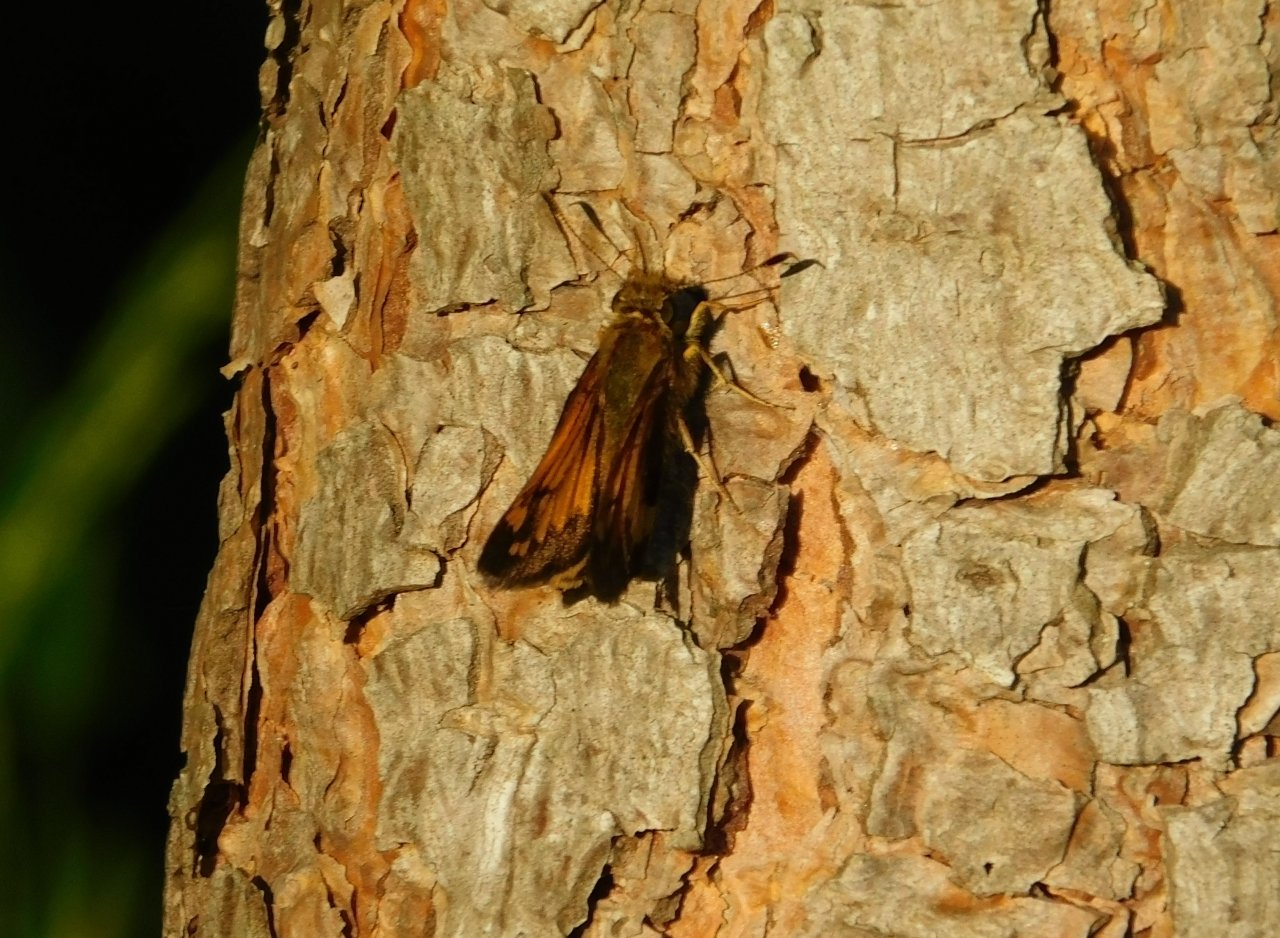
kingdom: Animalia
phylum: Arthropoda
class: Insecta
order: Lepidoptera
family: Hesperiidae
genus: Lon
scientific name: Lon hobomok
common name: Hobomok Skipper
